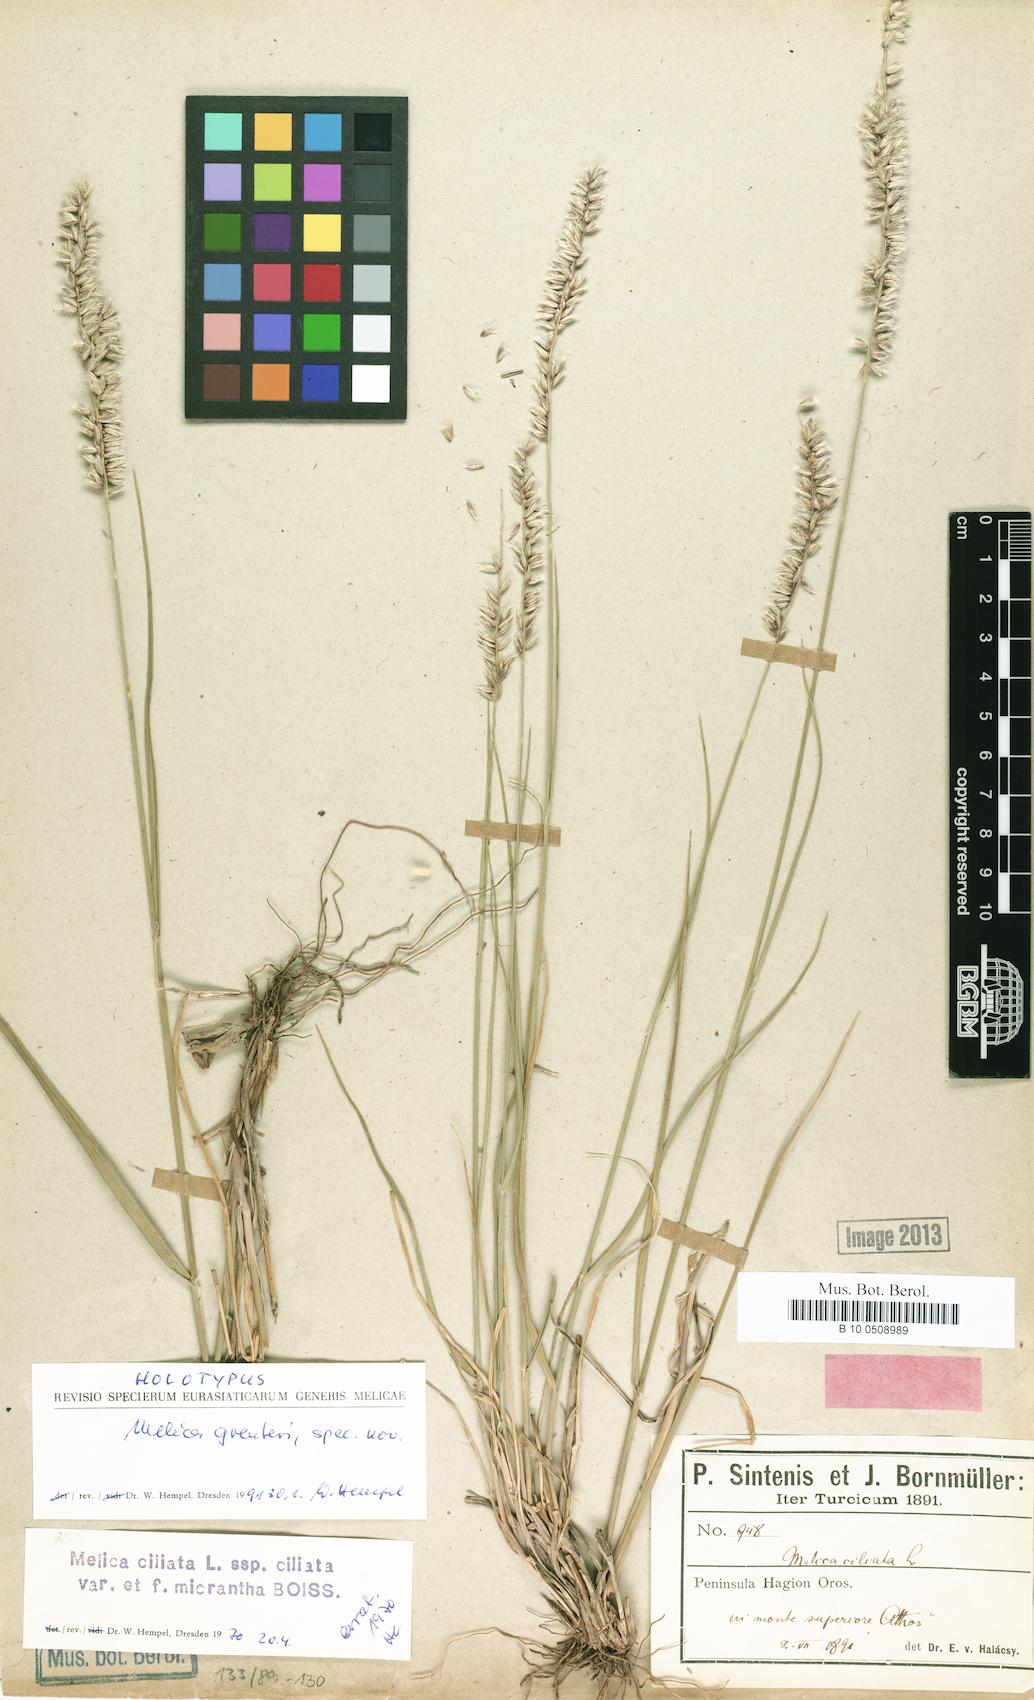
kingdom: Plantae
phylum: Tracheophyta
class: Liliopsida
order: Poales
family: Poaceae
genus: Melica
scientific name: Melica
